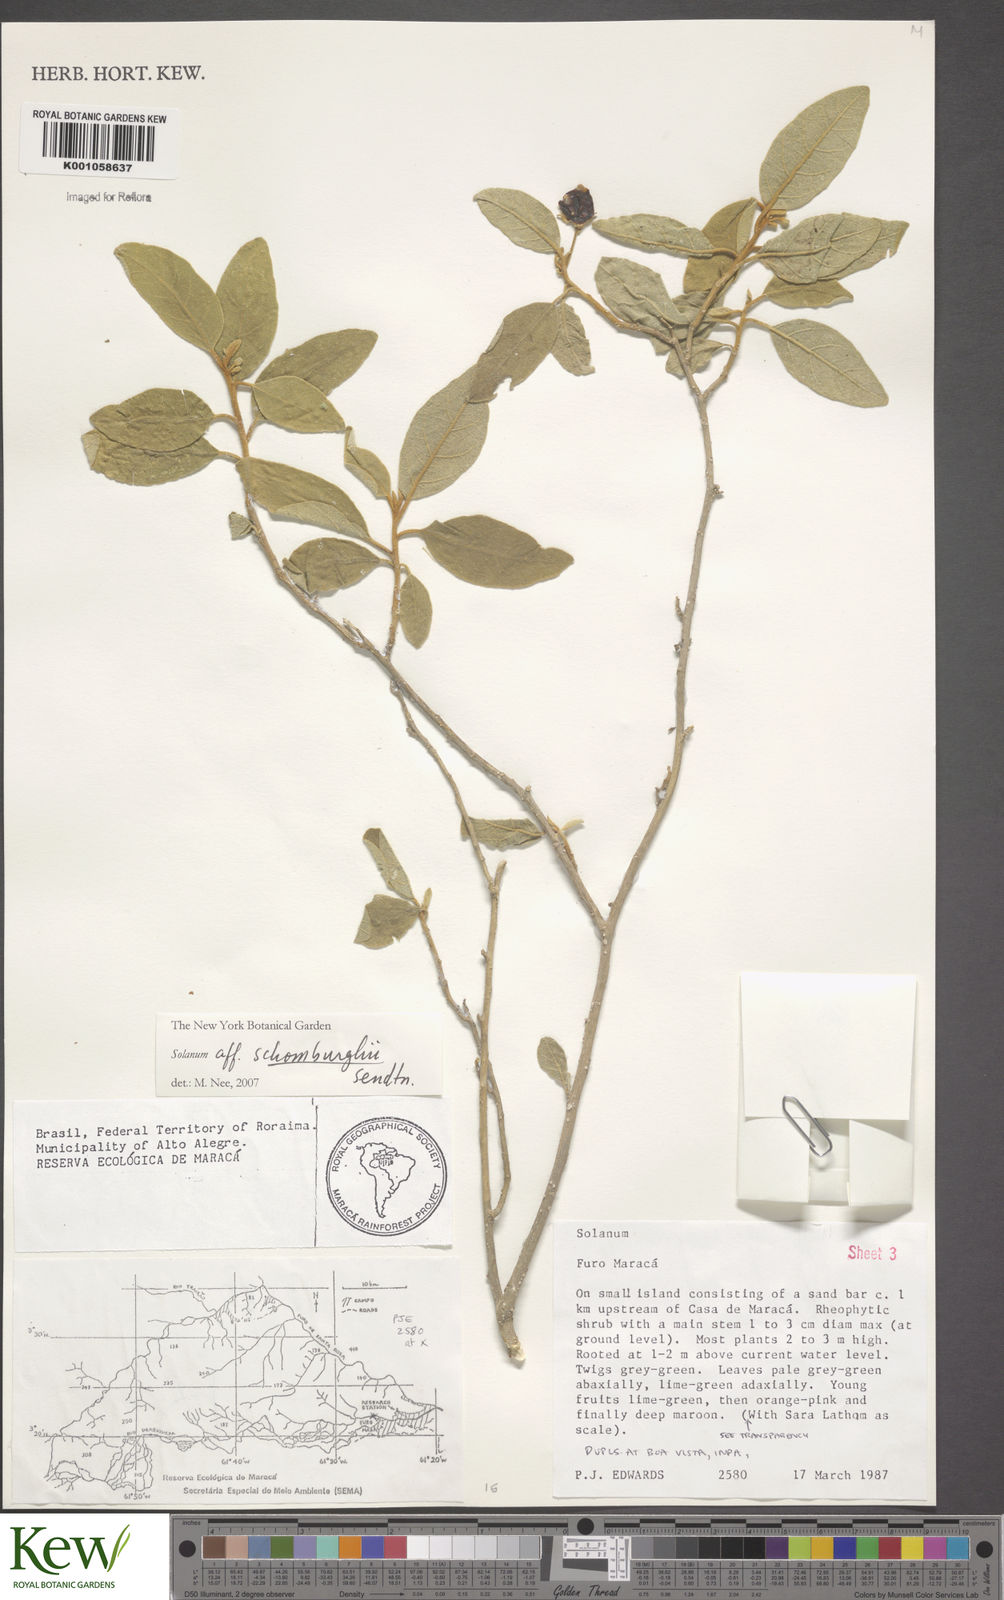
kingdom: Plantae
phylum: Tracheophyta
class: Magnoliopsida
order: Solanales
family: Solanaceae
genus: Solanum
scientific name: Solanum
